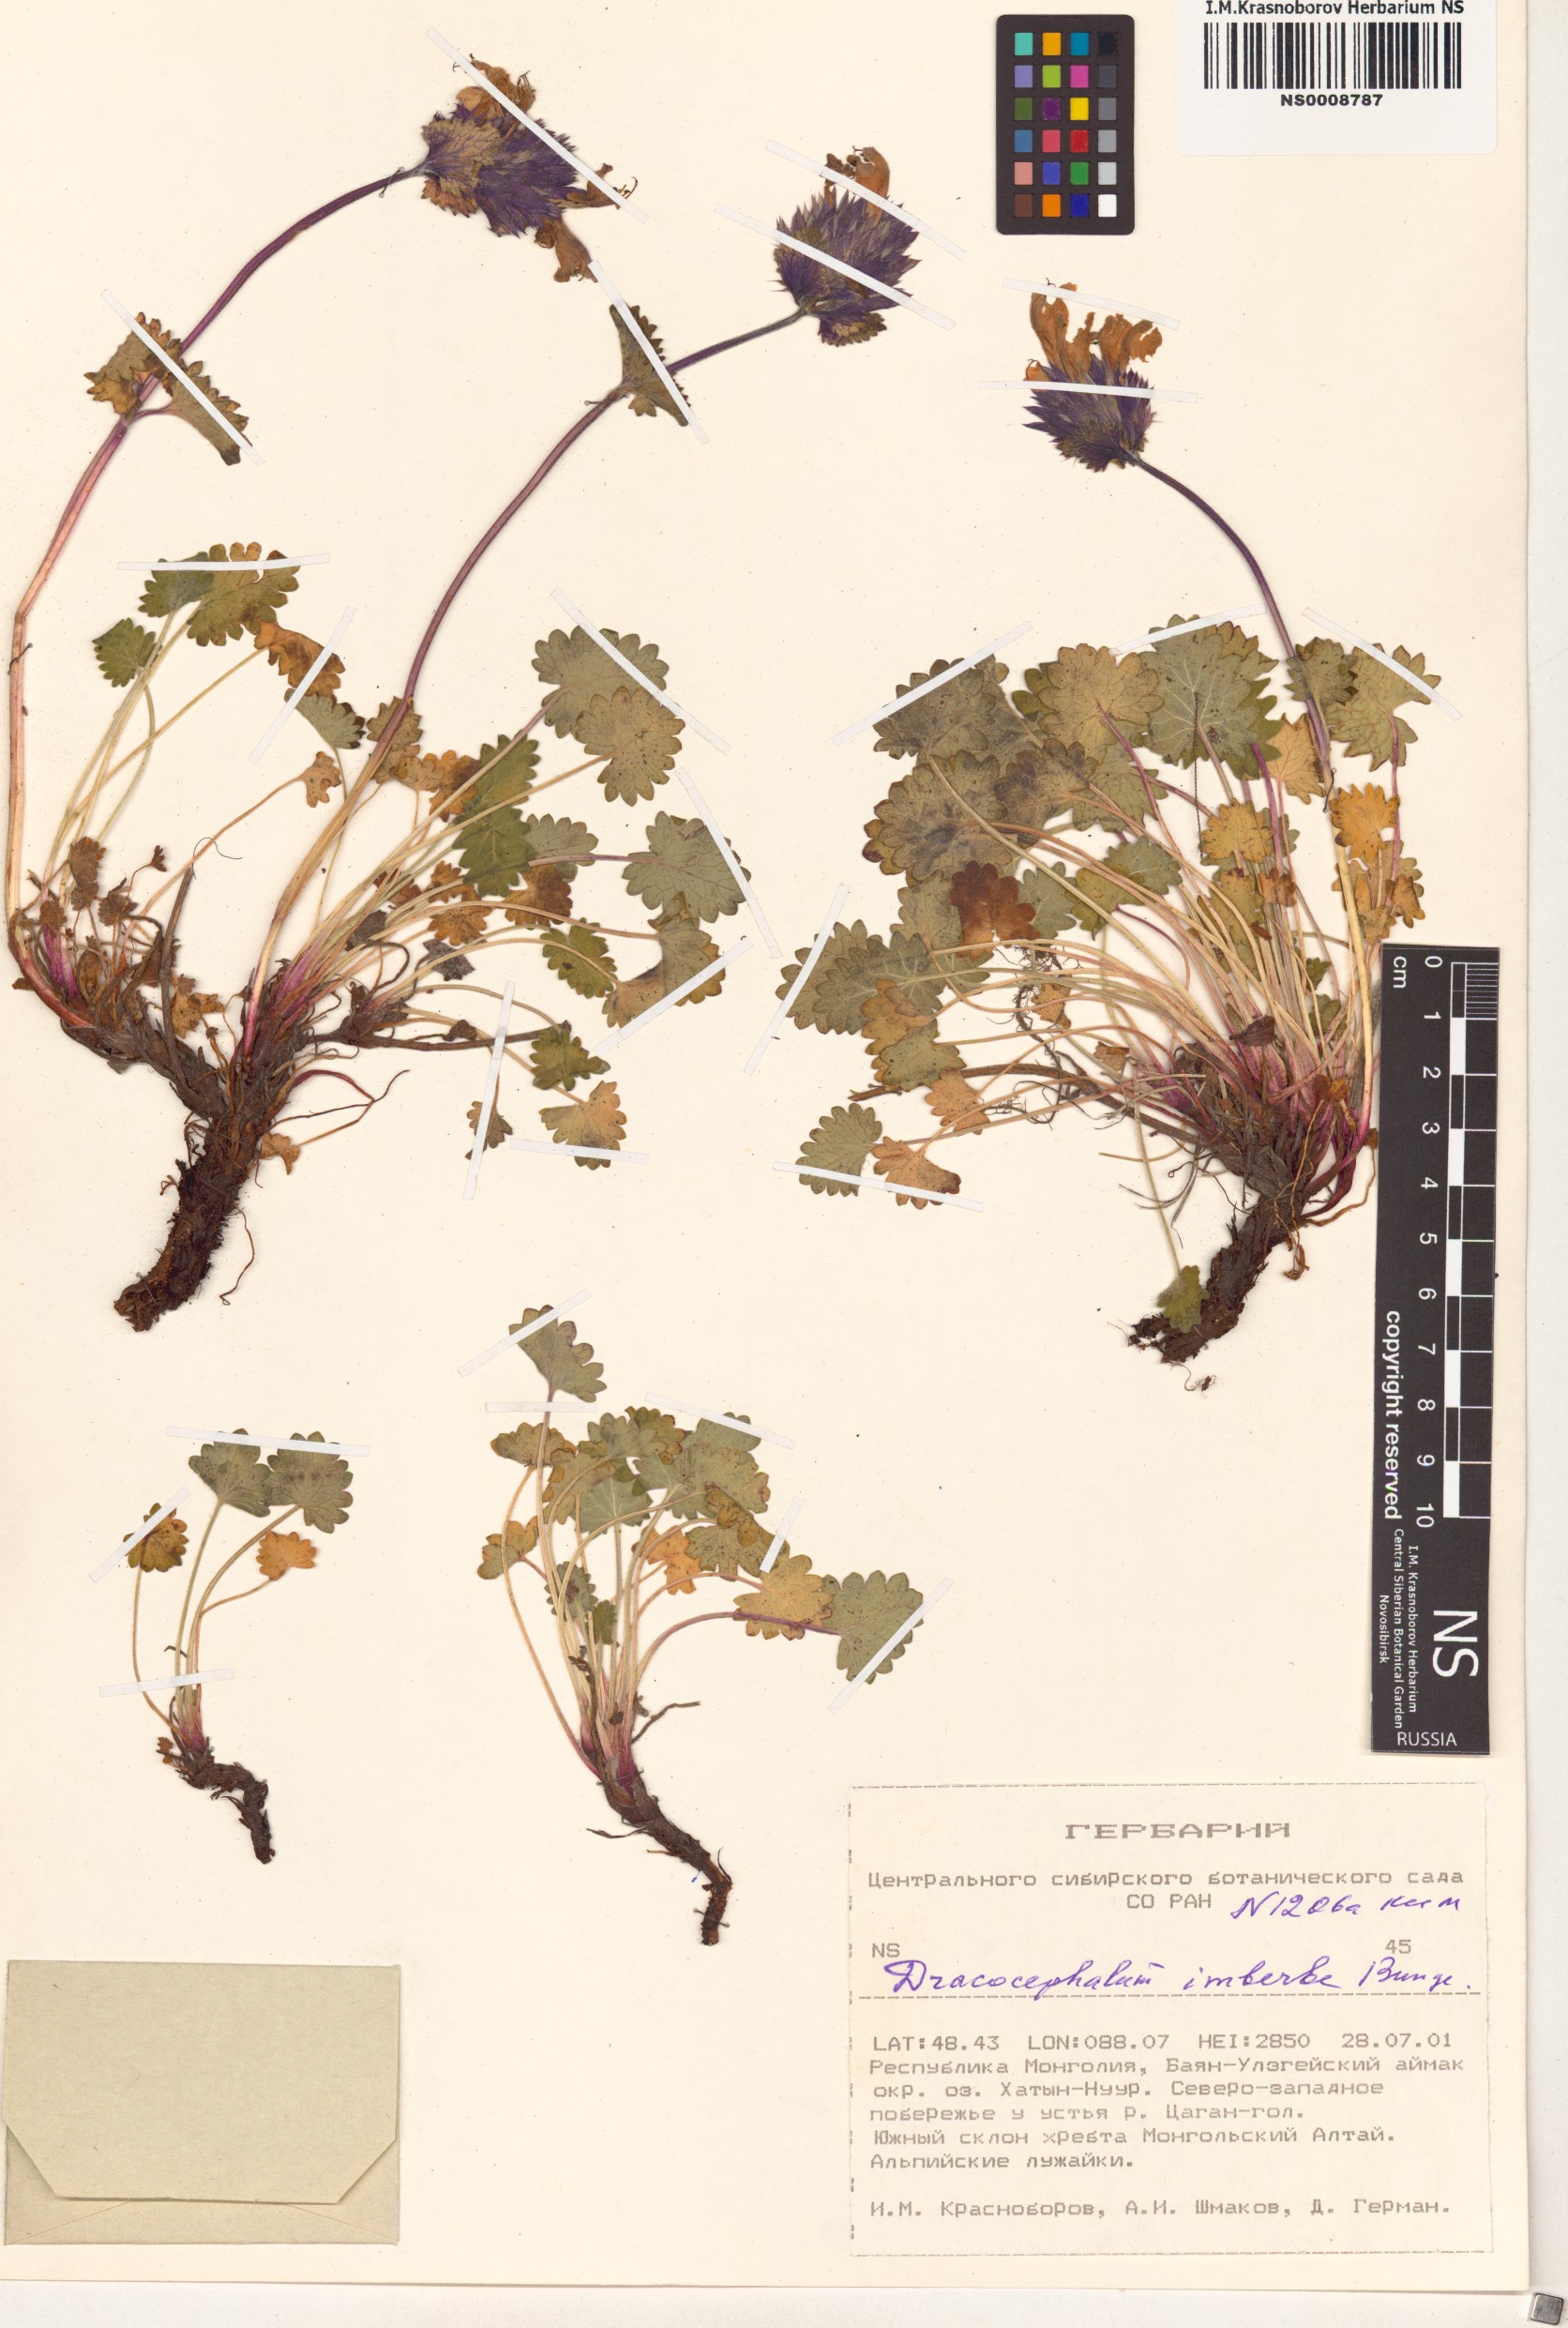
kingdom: Plantae
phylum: Tracheophyta
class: Magnoliopsida
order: Lamiales
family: Lamiaceae
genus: Dracocephalum
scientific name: Dracocephalum imberbe
